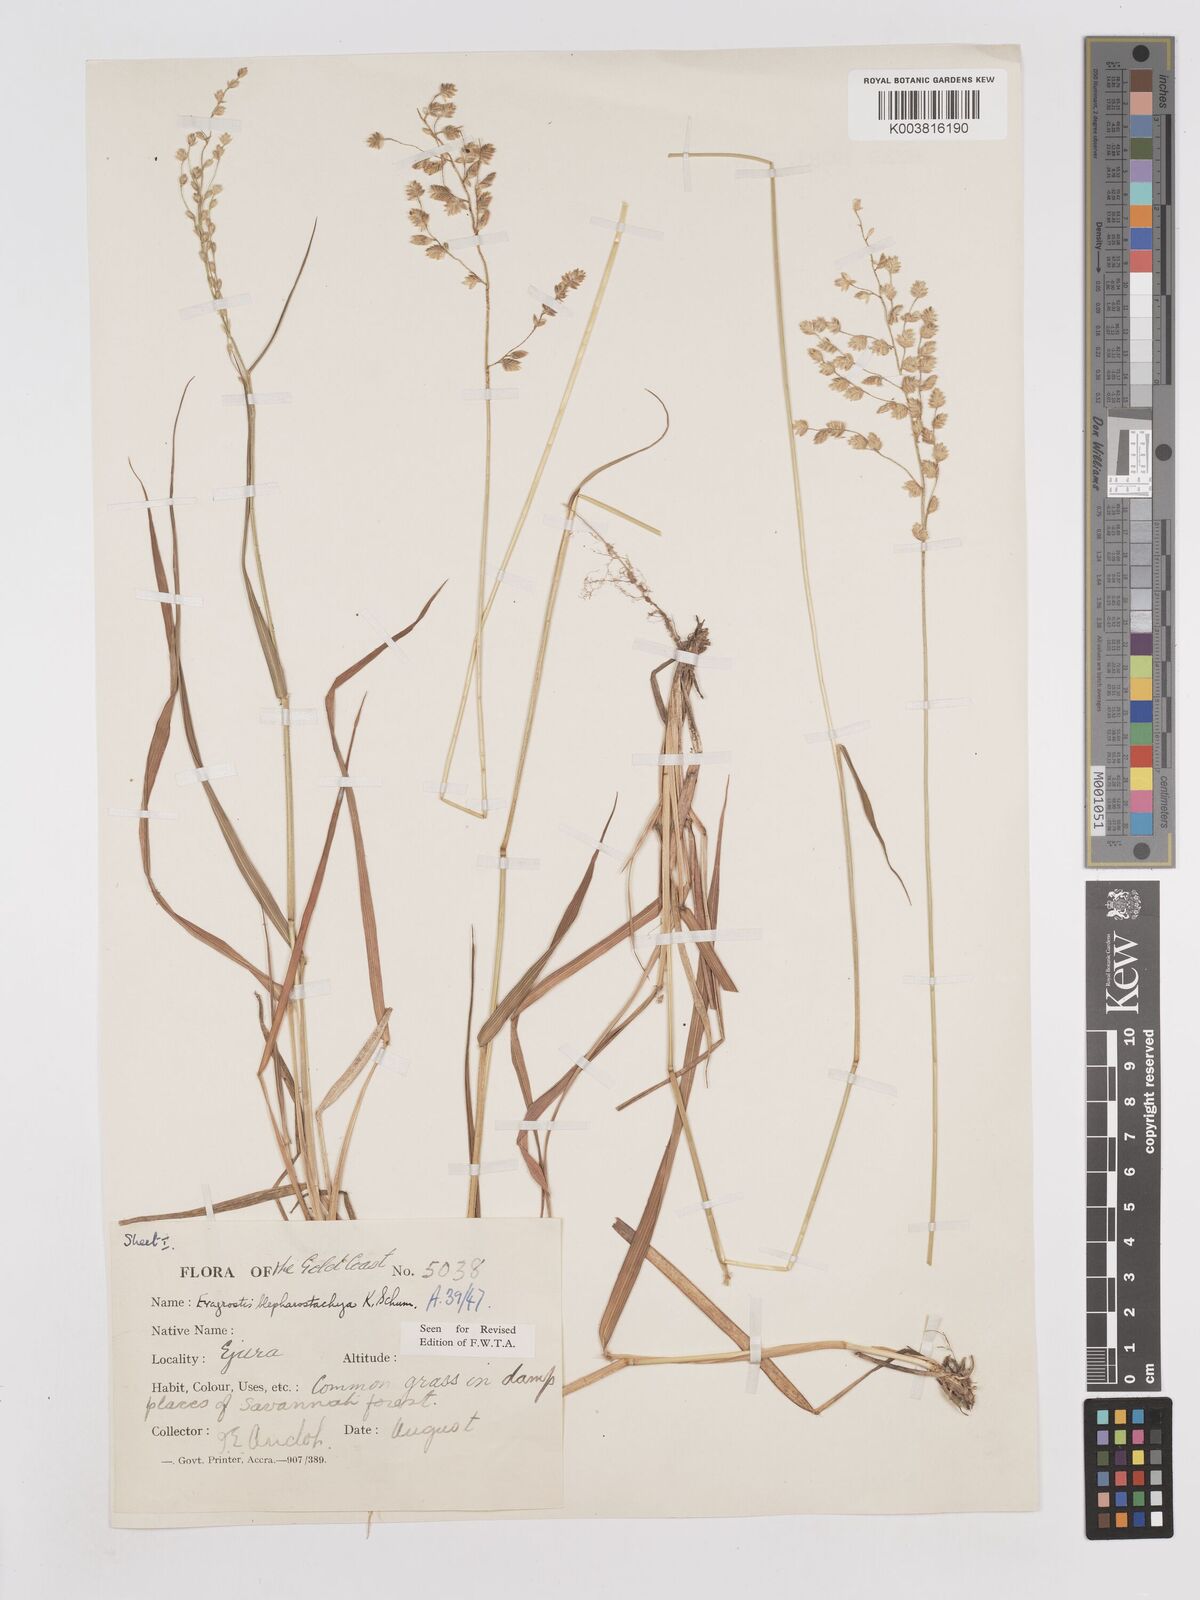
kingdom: Plantae
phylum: Tracheophyta
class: Liliopsida
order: Poales
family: Poaceae
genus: Eragrostis
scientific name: Eragrostis blepharostachya
